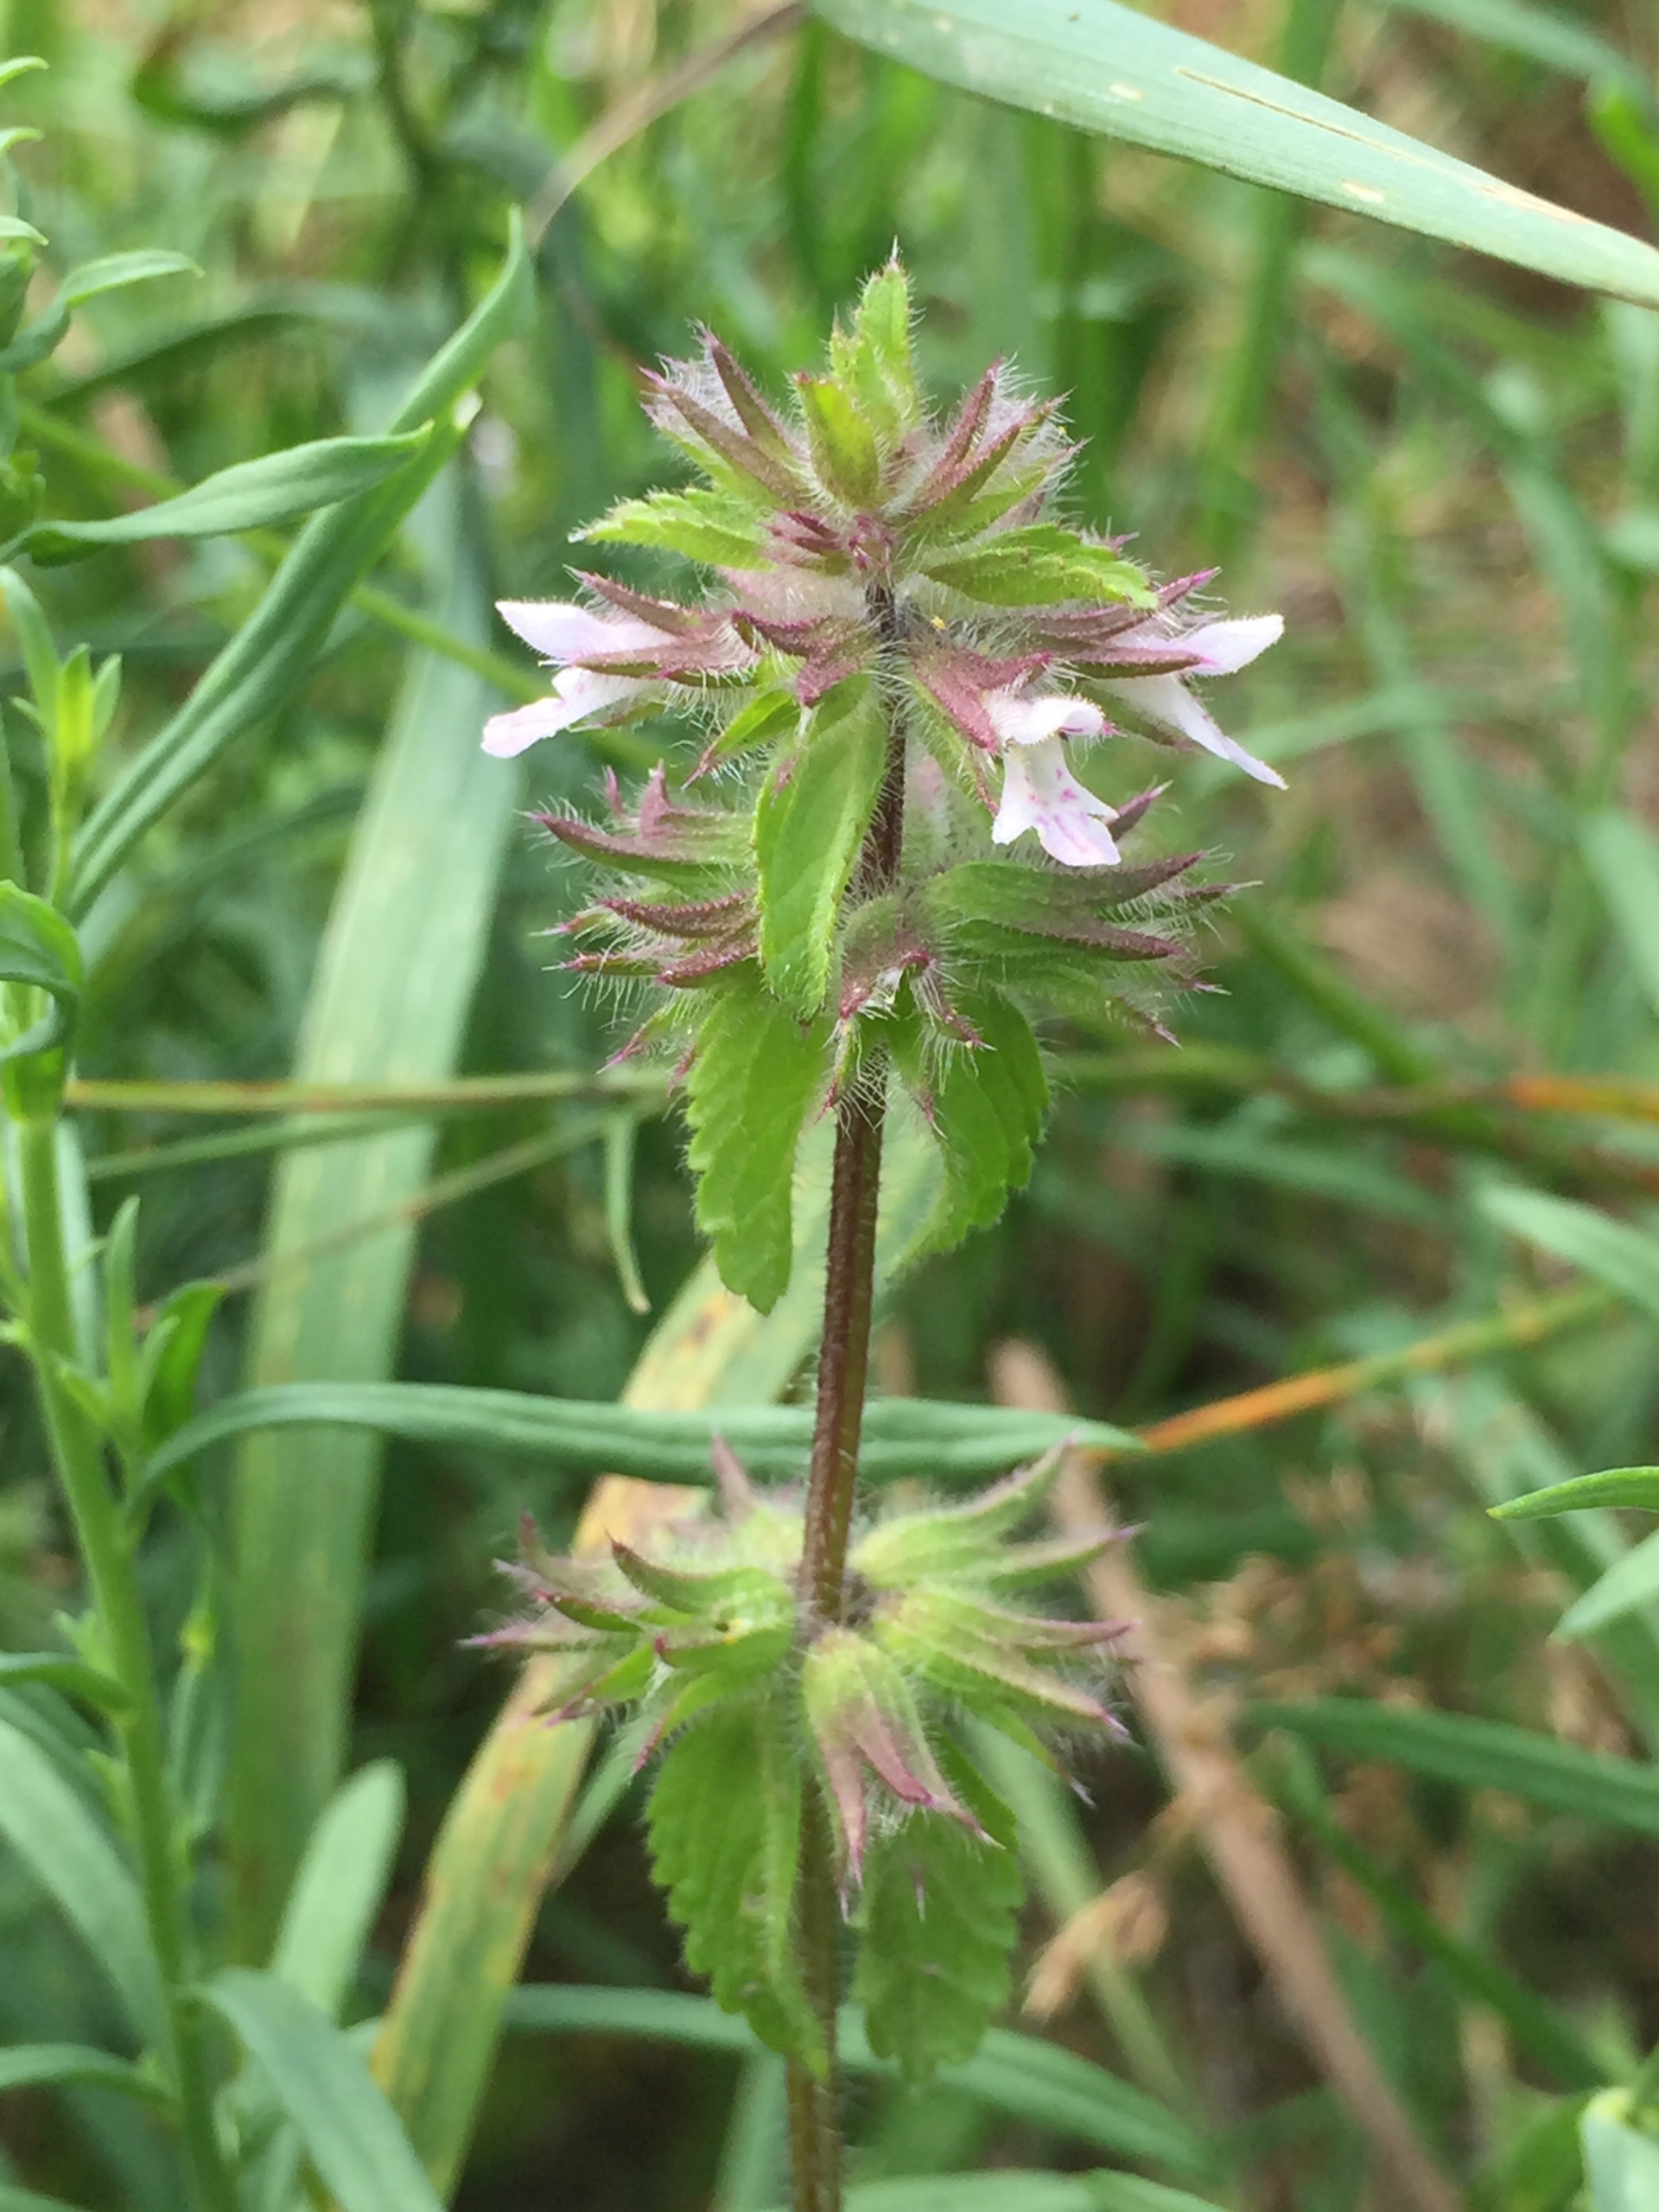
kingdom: Plantae
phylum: Tracheophyta
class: Magnoliopsida
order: Lamiales
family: Lamiaceae
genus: Stachys
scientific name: Stachys arvensis
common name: Ager-galtetand
